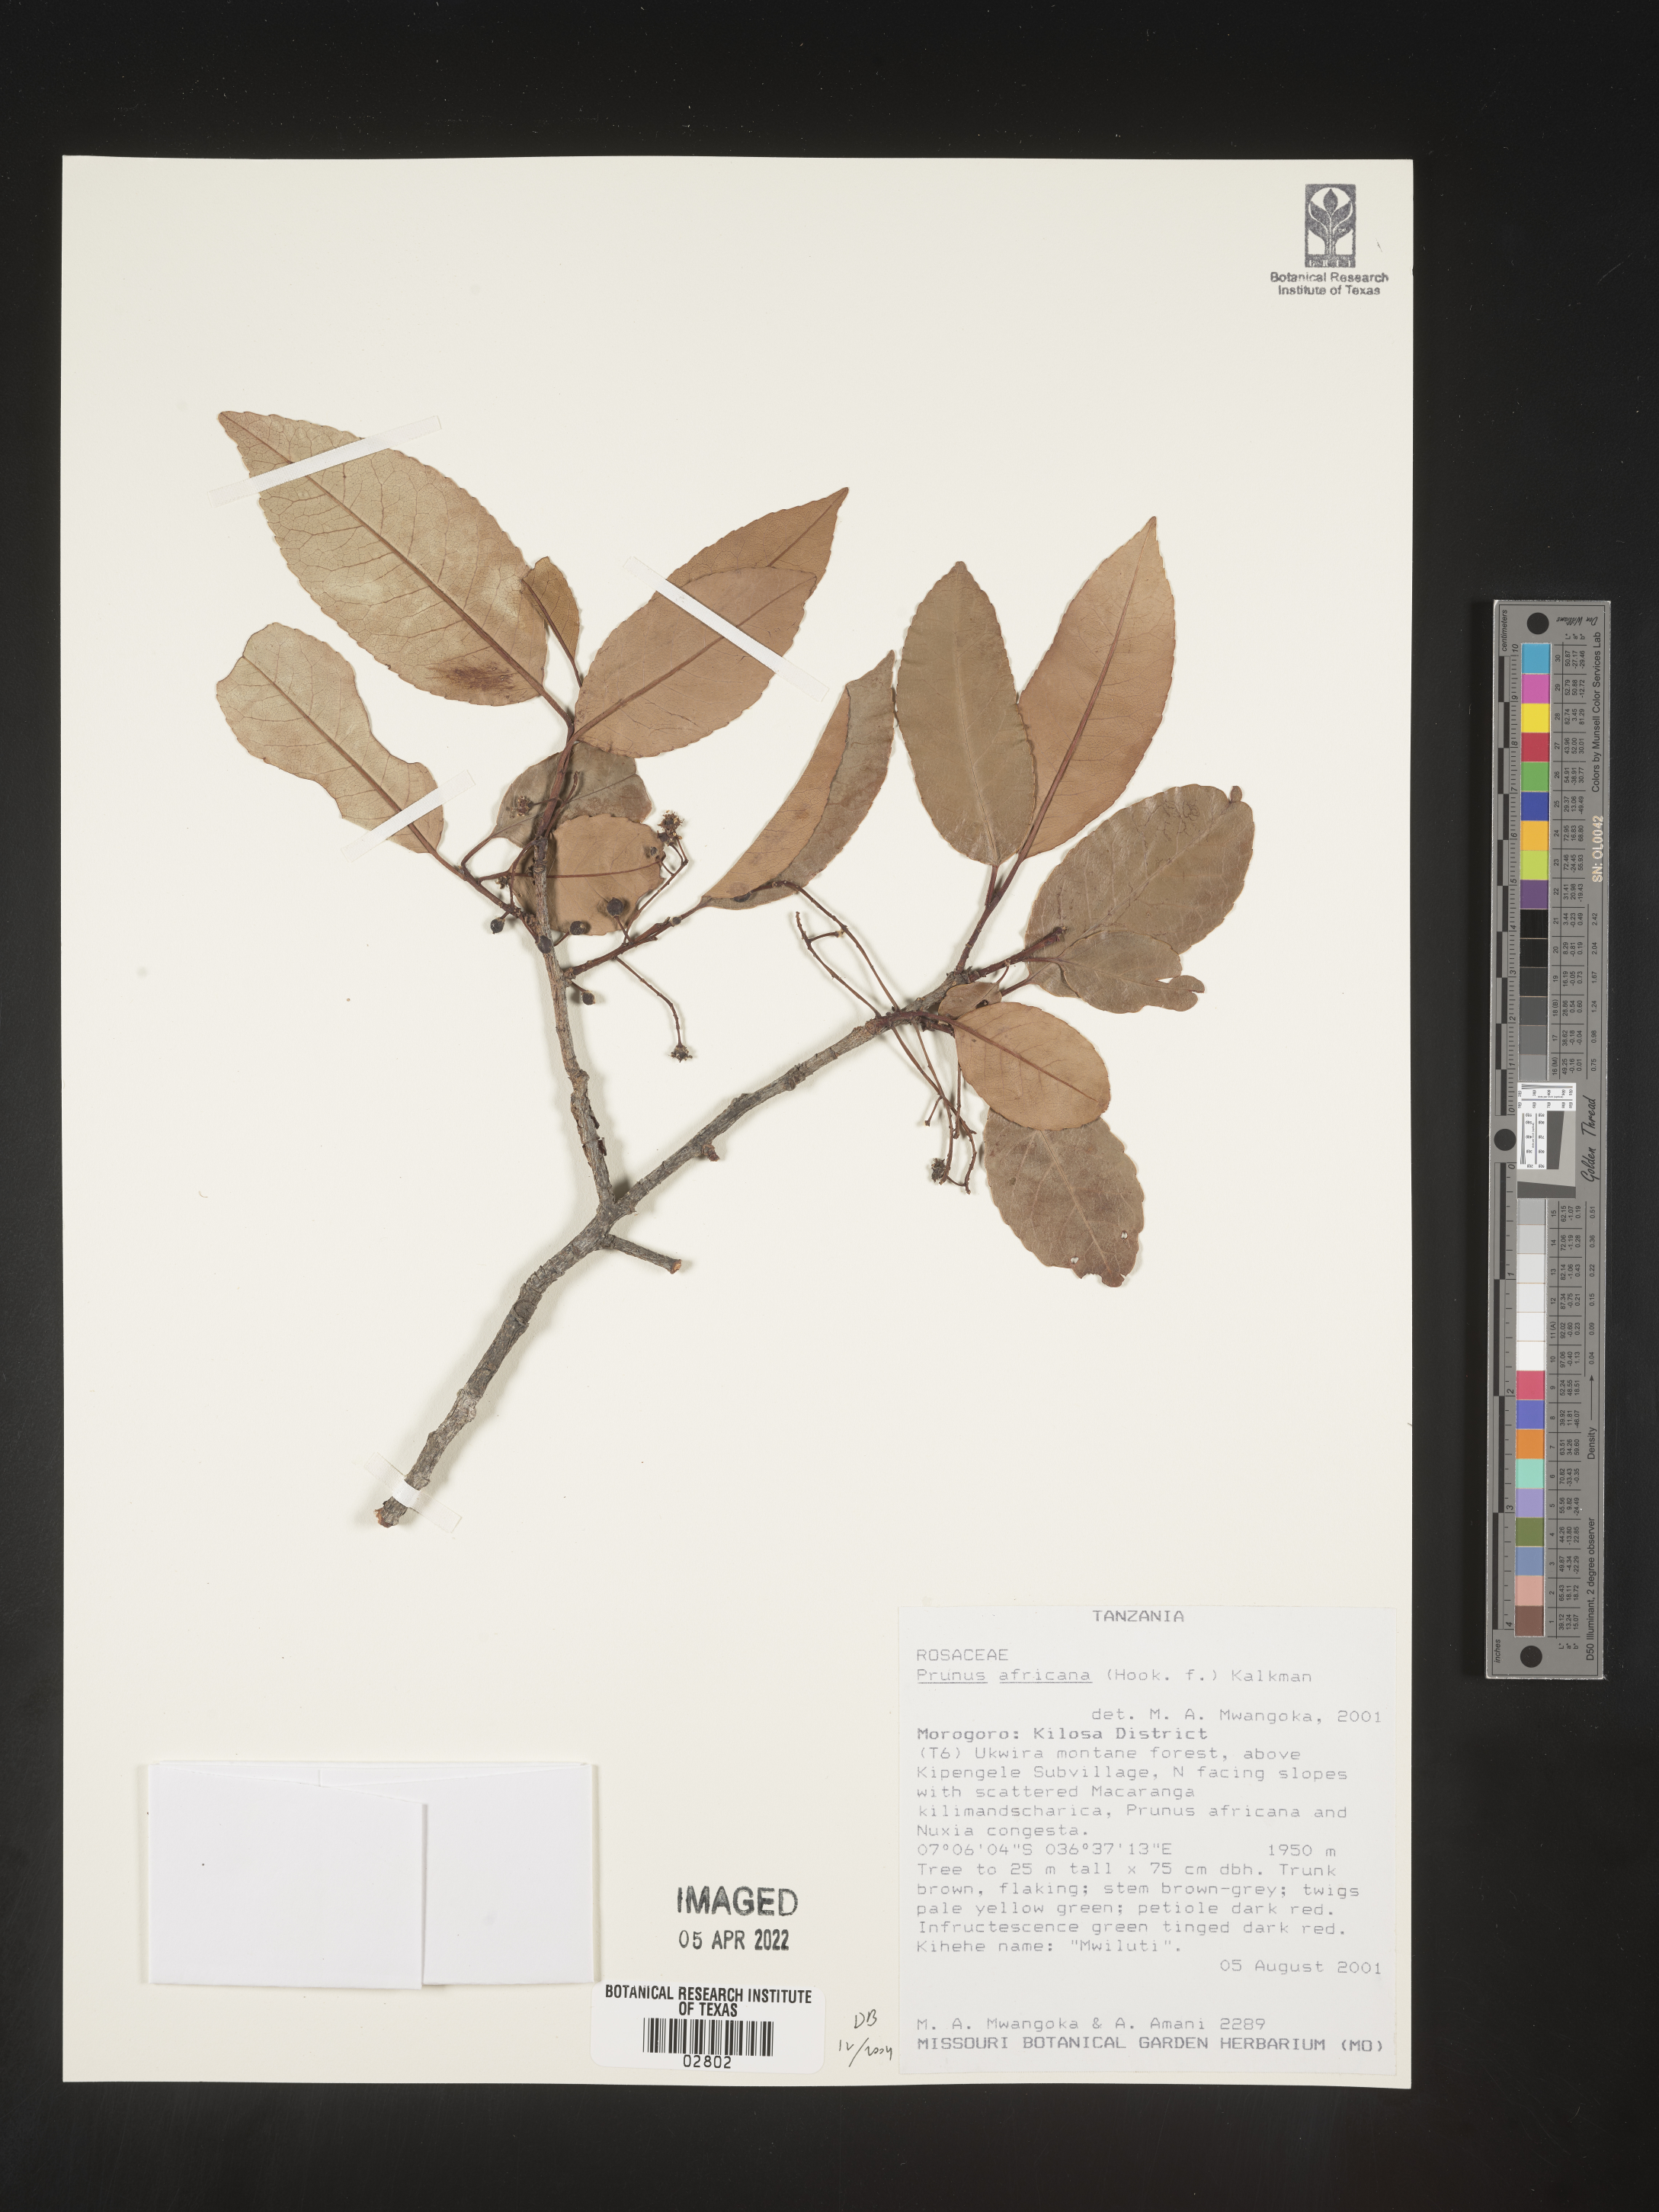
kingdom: Plantae
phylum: Tracheophyta
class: Magnoliopsida
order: Rosales
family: Rosaceae
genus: Prunus
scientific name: Prunus
